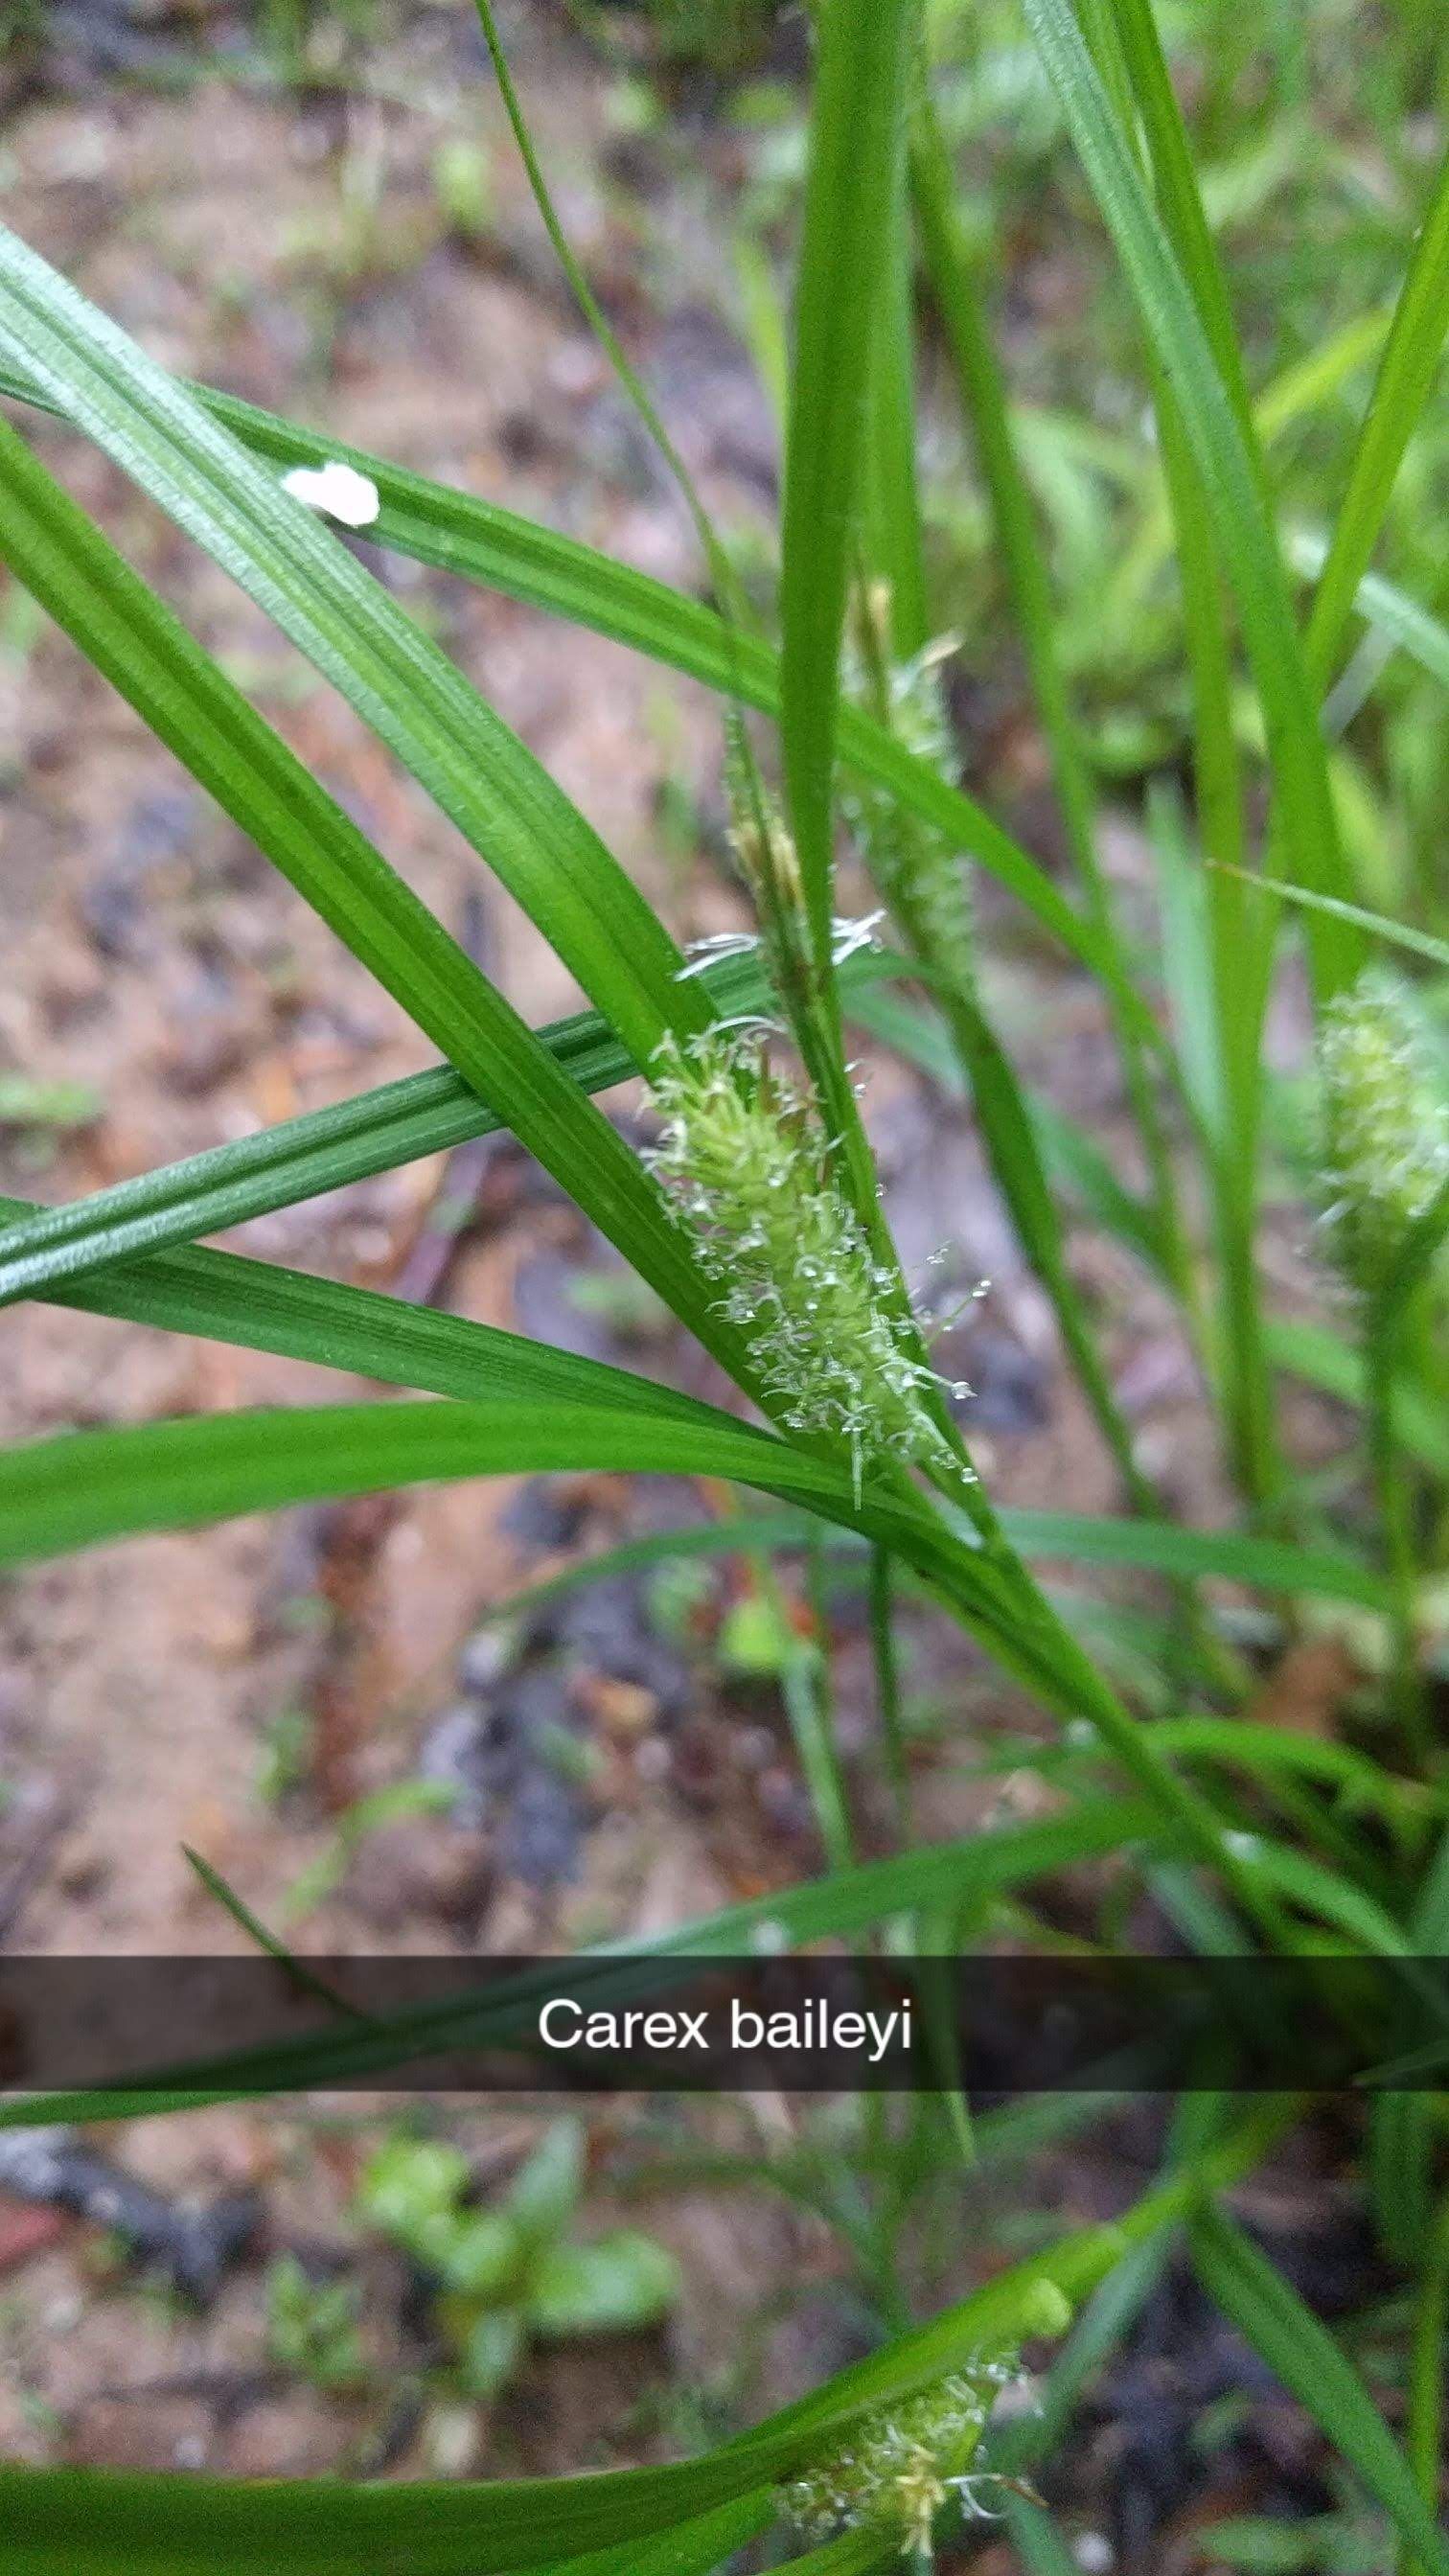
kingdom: Plantae
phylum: Tracheophyta
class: Liliopsida
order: Poales
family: Cyperaceae
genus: Carex
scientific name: Carex baileyi
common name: Bailey's sedge
